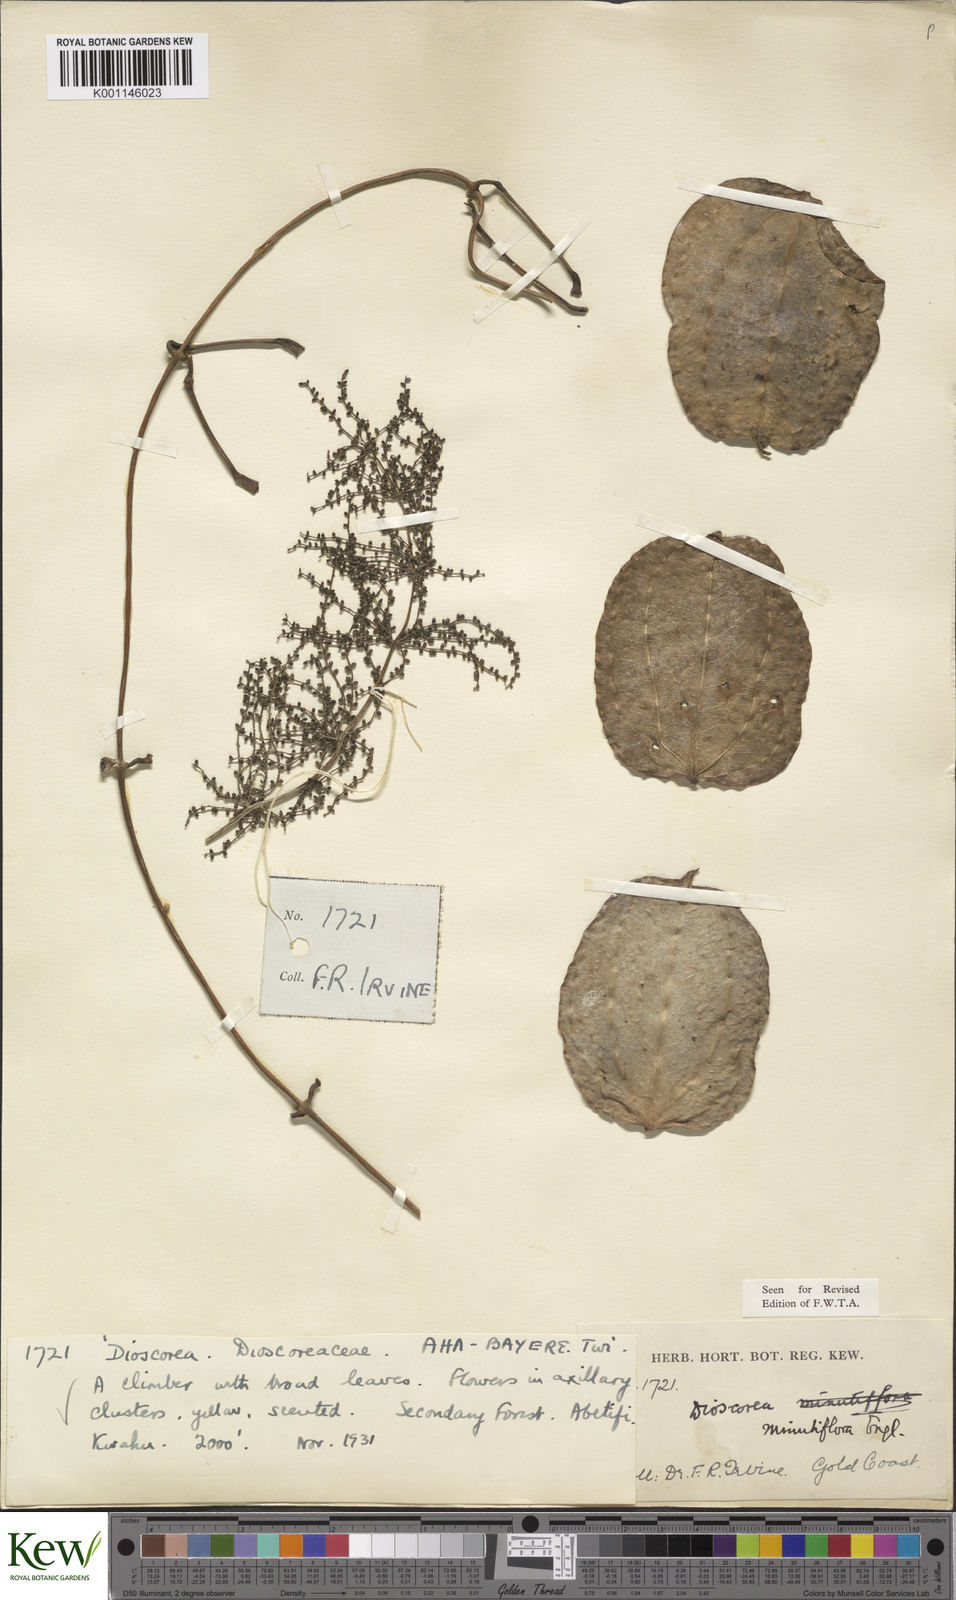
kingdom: Plantae
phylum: Tracheophyta
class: Liliopsida
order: Dioscoreales
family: Dioscoreaceae
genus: Dioscorea
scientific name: Dioscorea minutiflora
